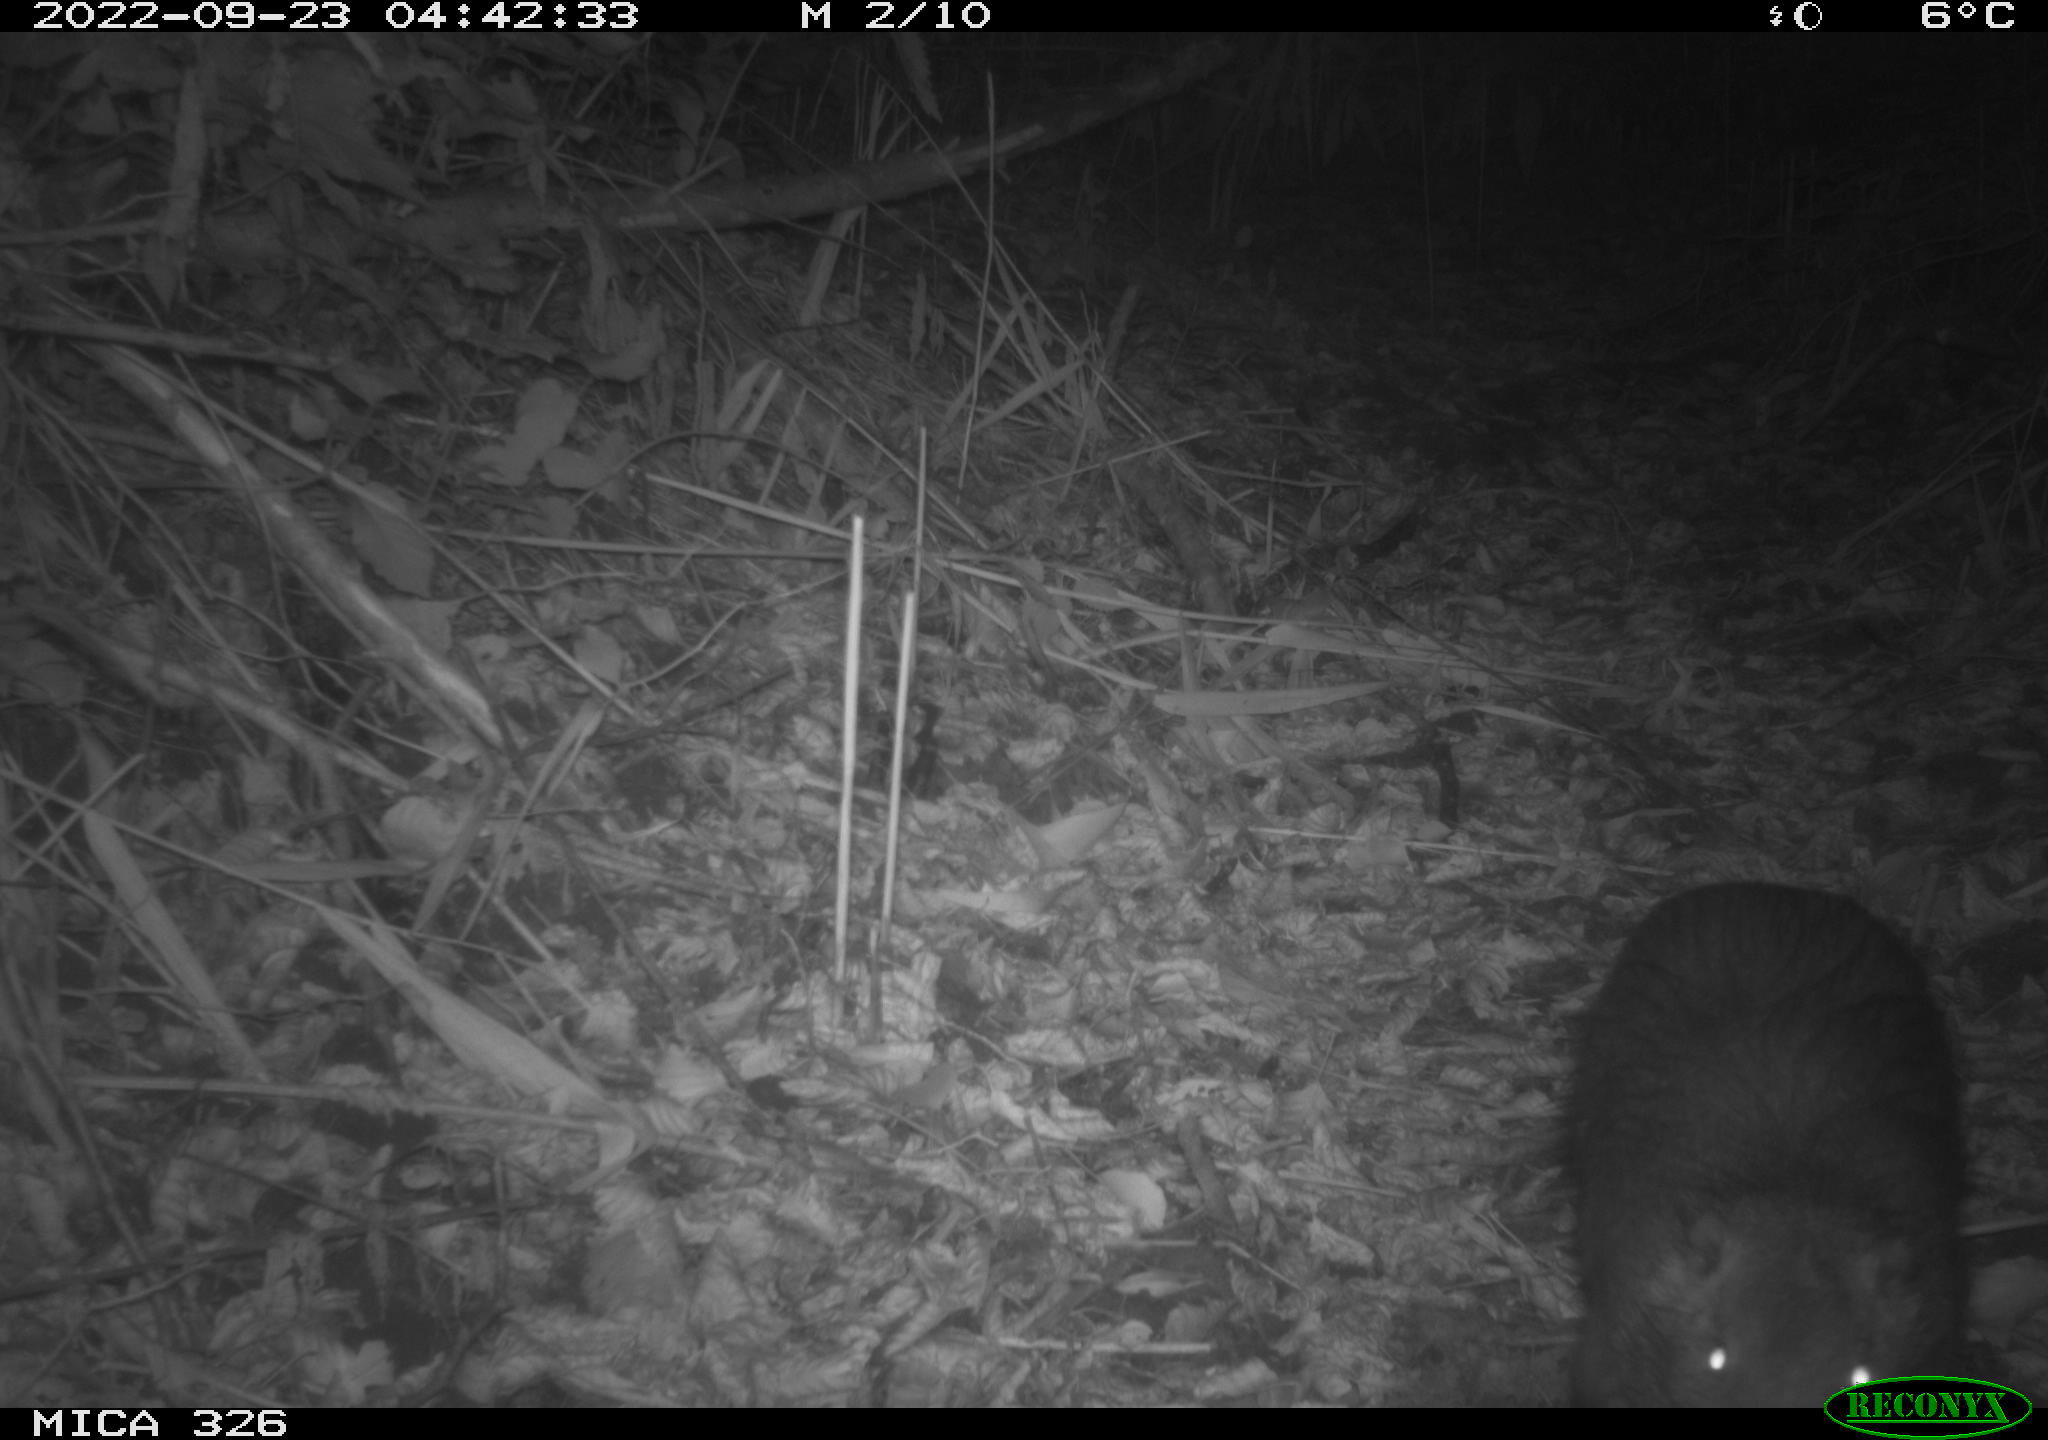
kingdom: Animalia
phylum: Chordata
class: Mammalia
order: Rodentia
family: Myocastoridae
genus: Myocastor
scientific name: Myocastor coypus
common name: Coypu
